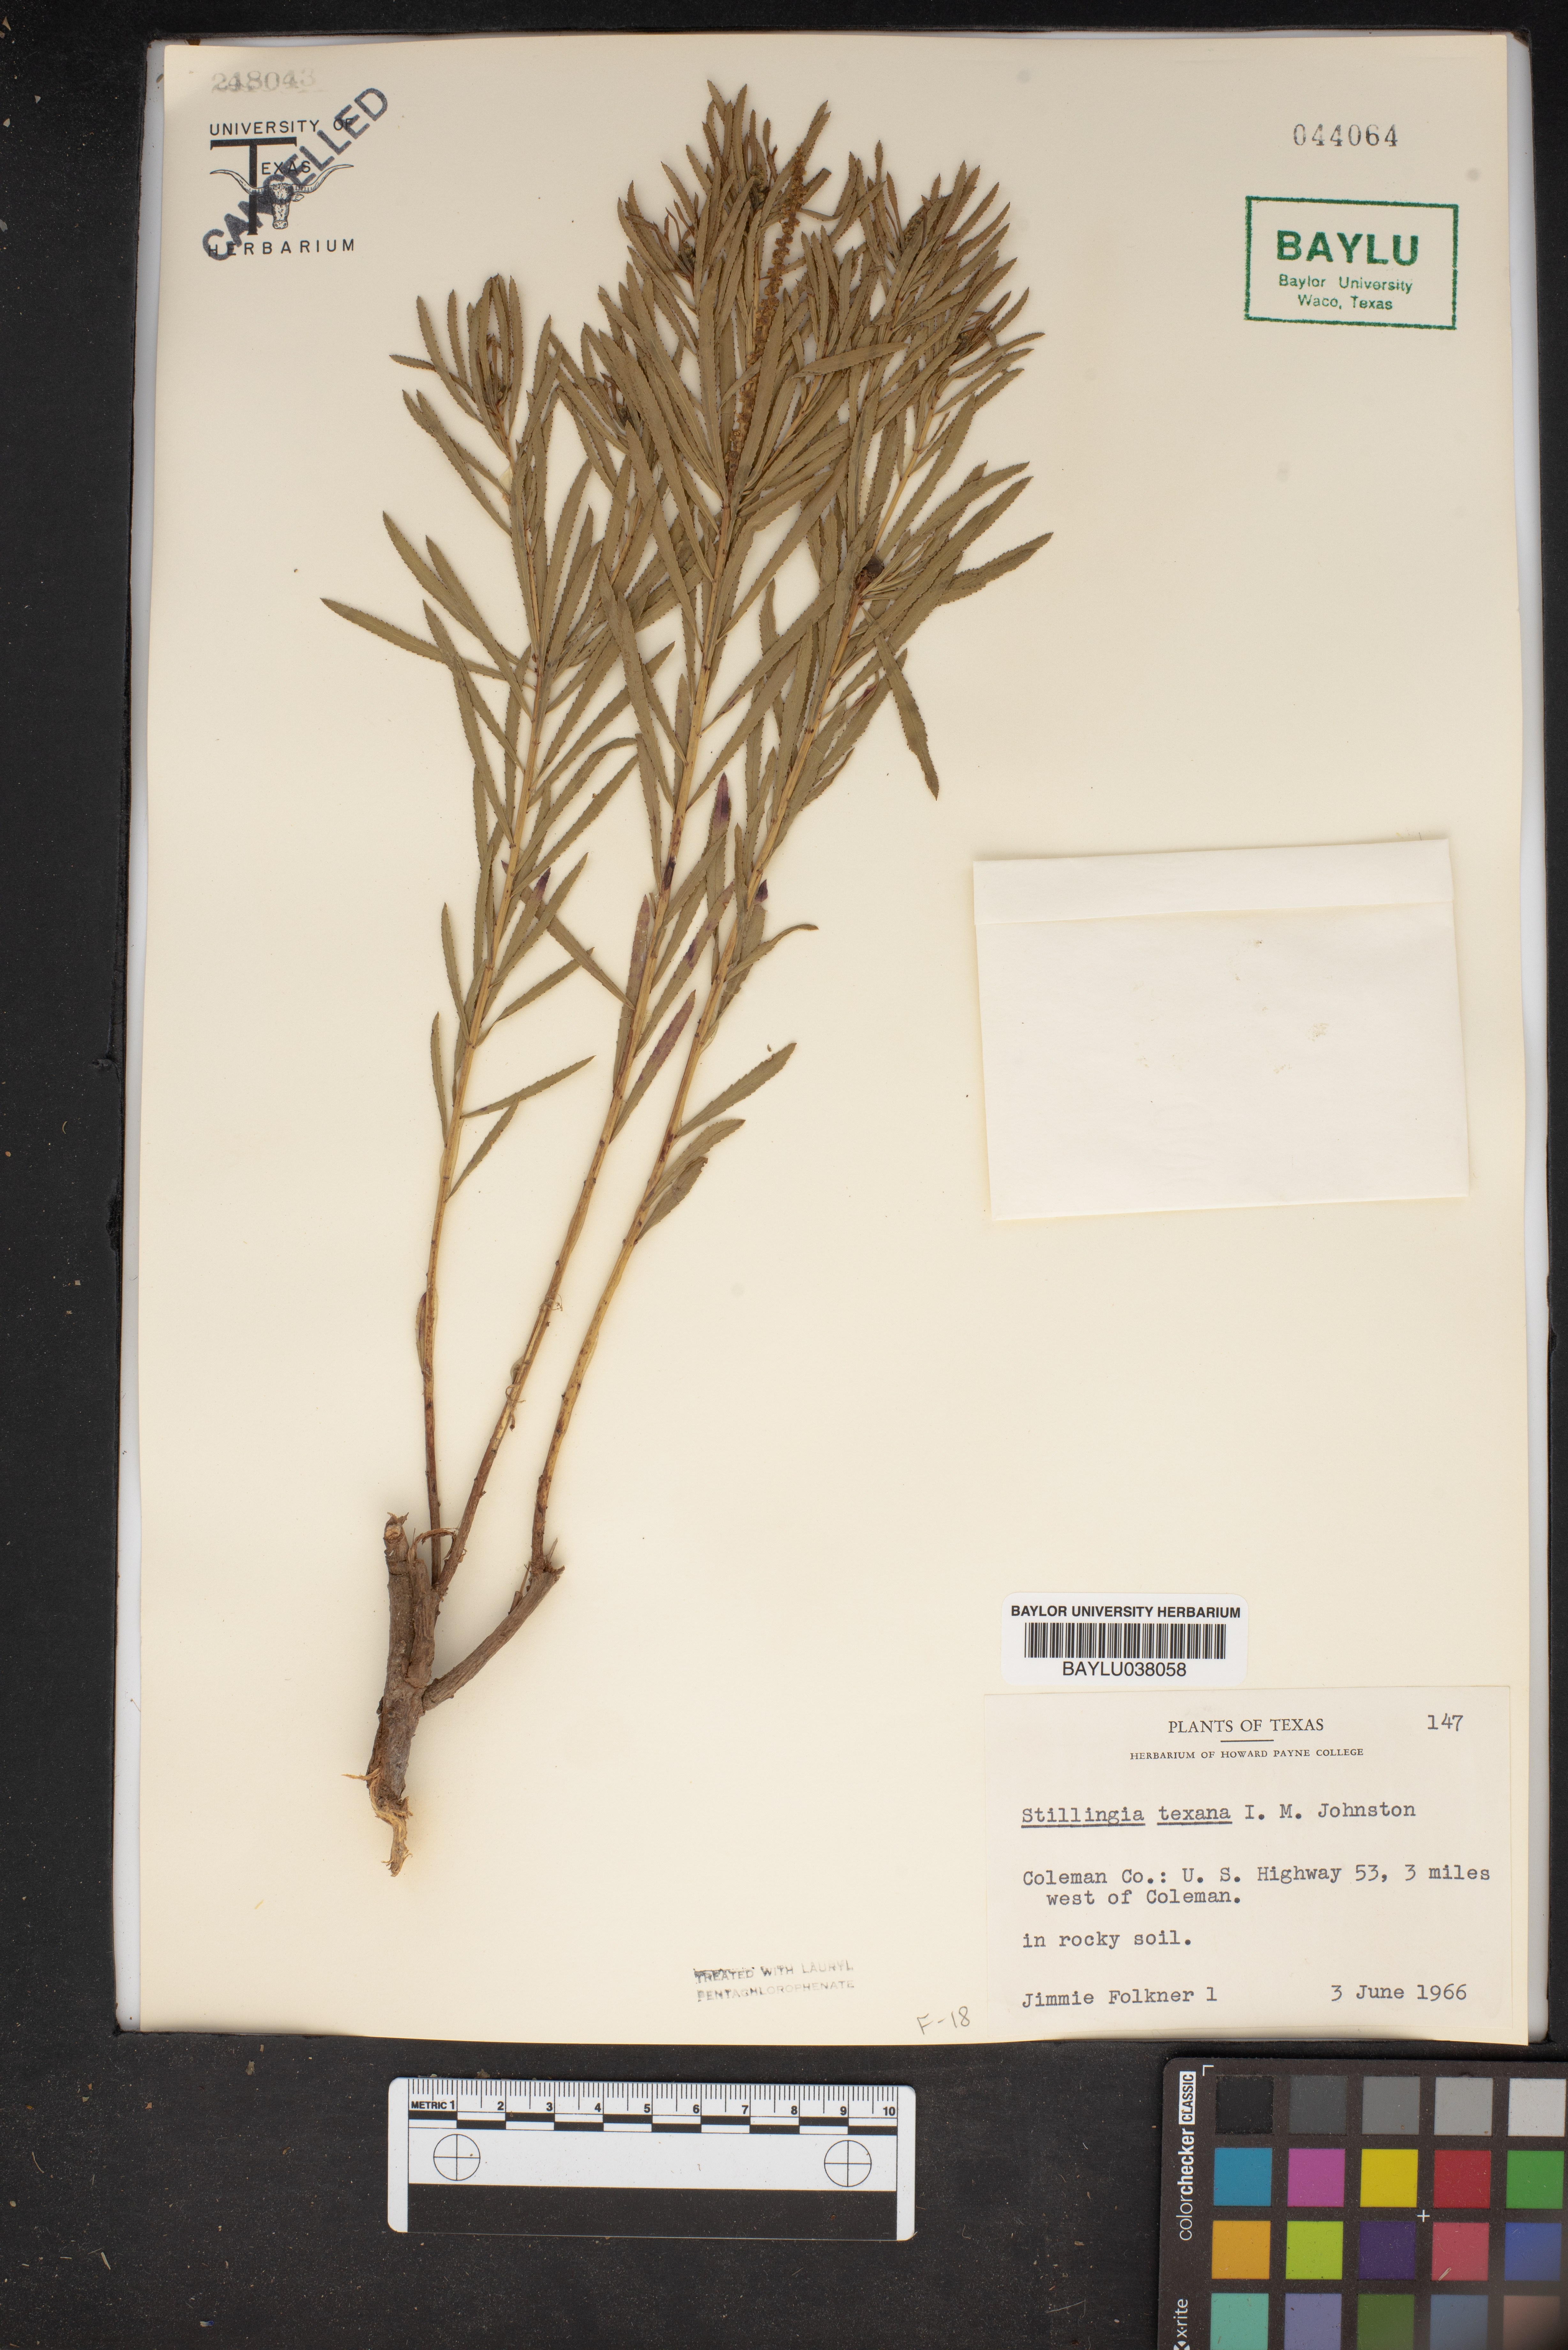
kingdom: Plantae
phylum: Tracheophyta
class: Magnoliopsida
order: Malpighiales
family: Euphorbiaceae
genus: Stillingia
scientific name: Stillingia texana
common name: Texas stillingia
